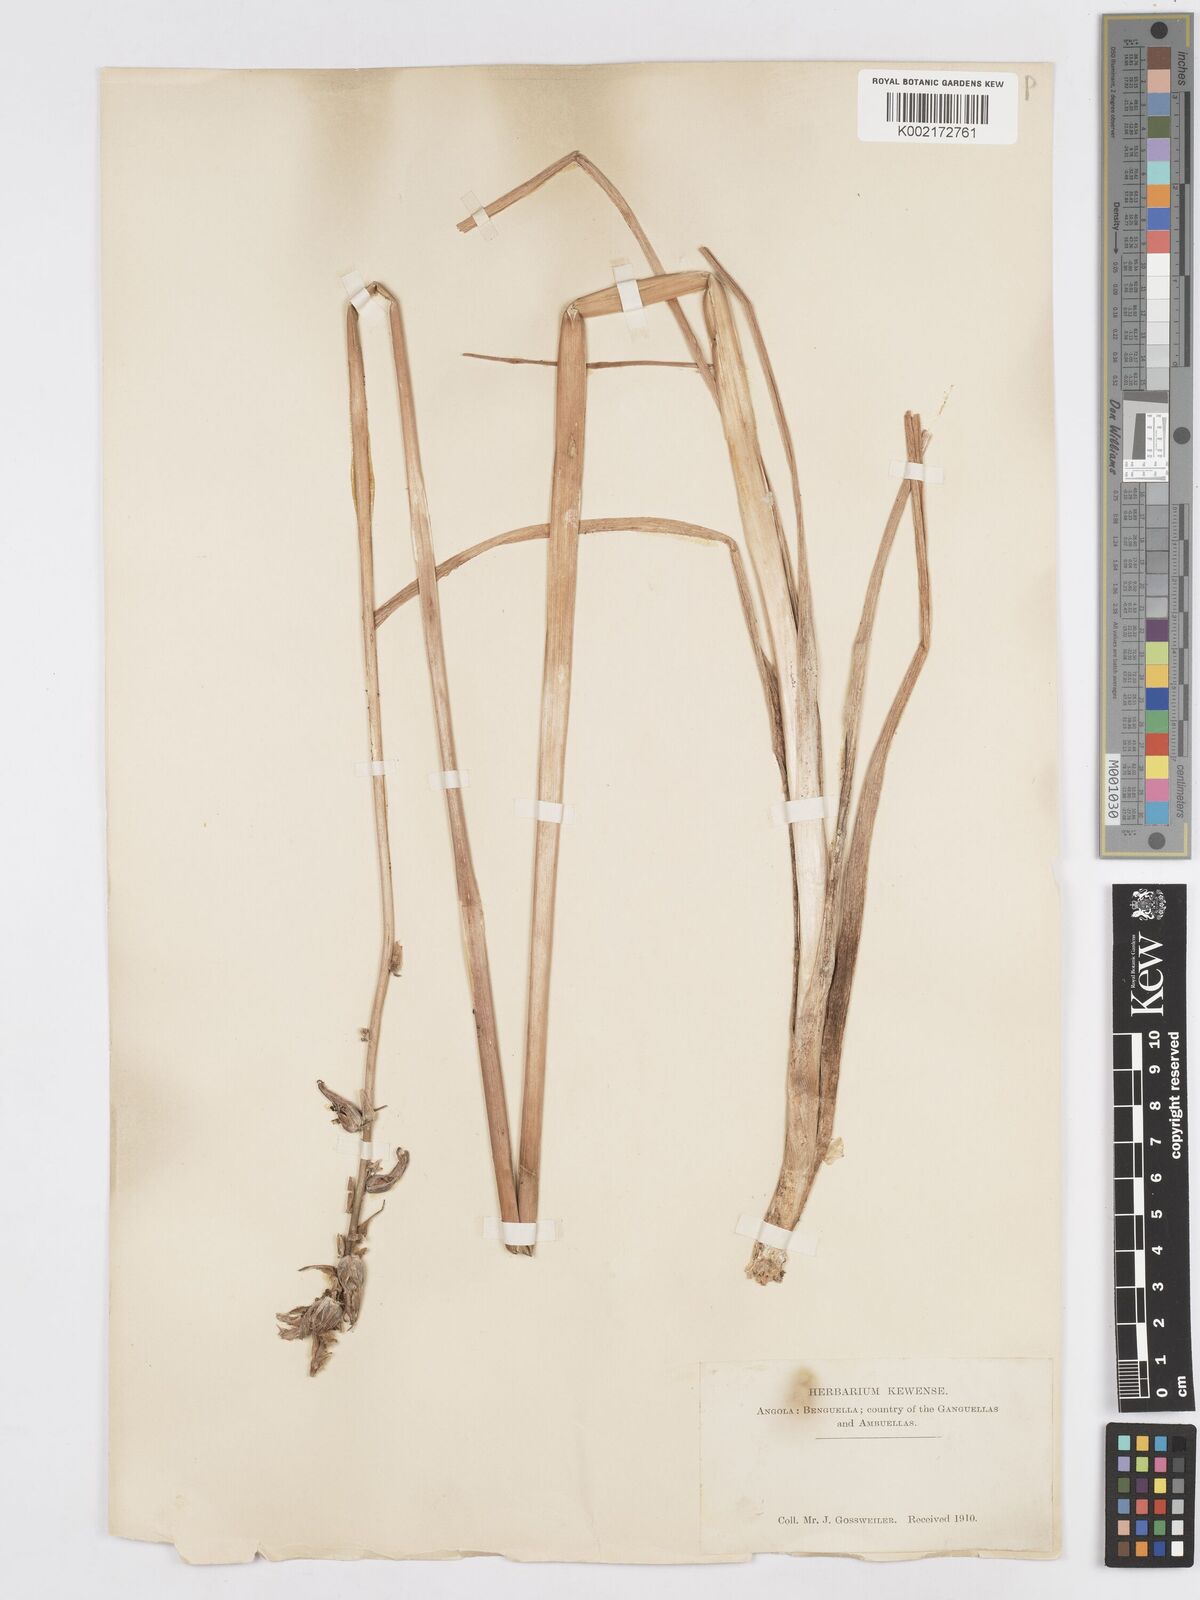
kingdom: Plantae
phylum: Tracheophyta
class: Liliopsida
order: Asparagales
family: Asparagaceae
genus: Albuca
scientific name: Albuca abyssinica
